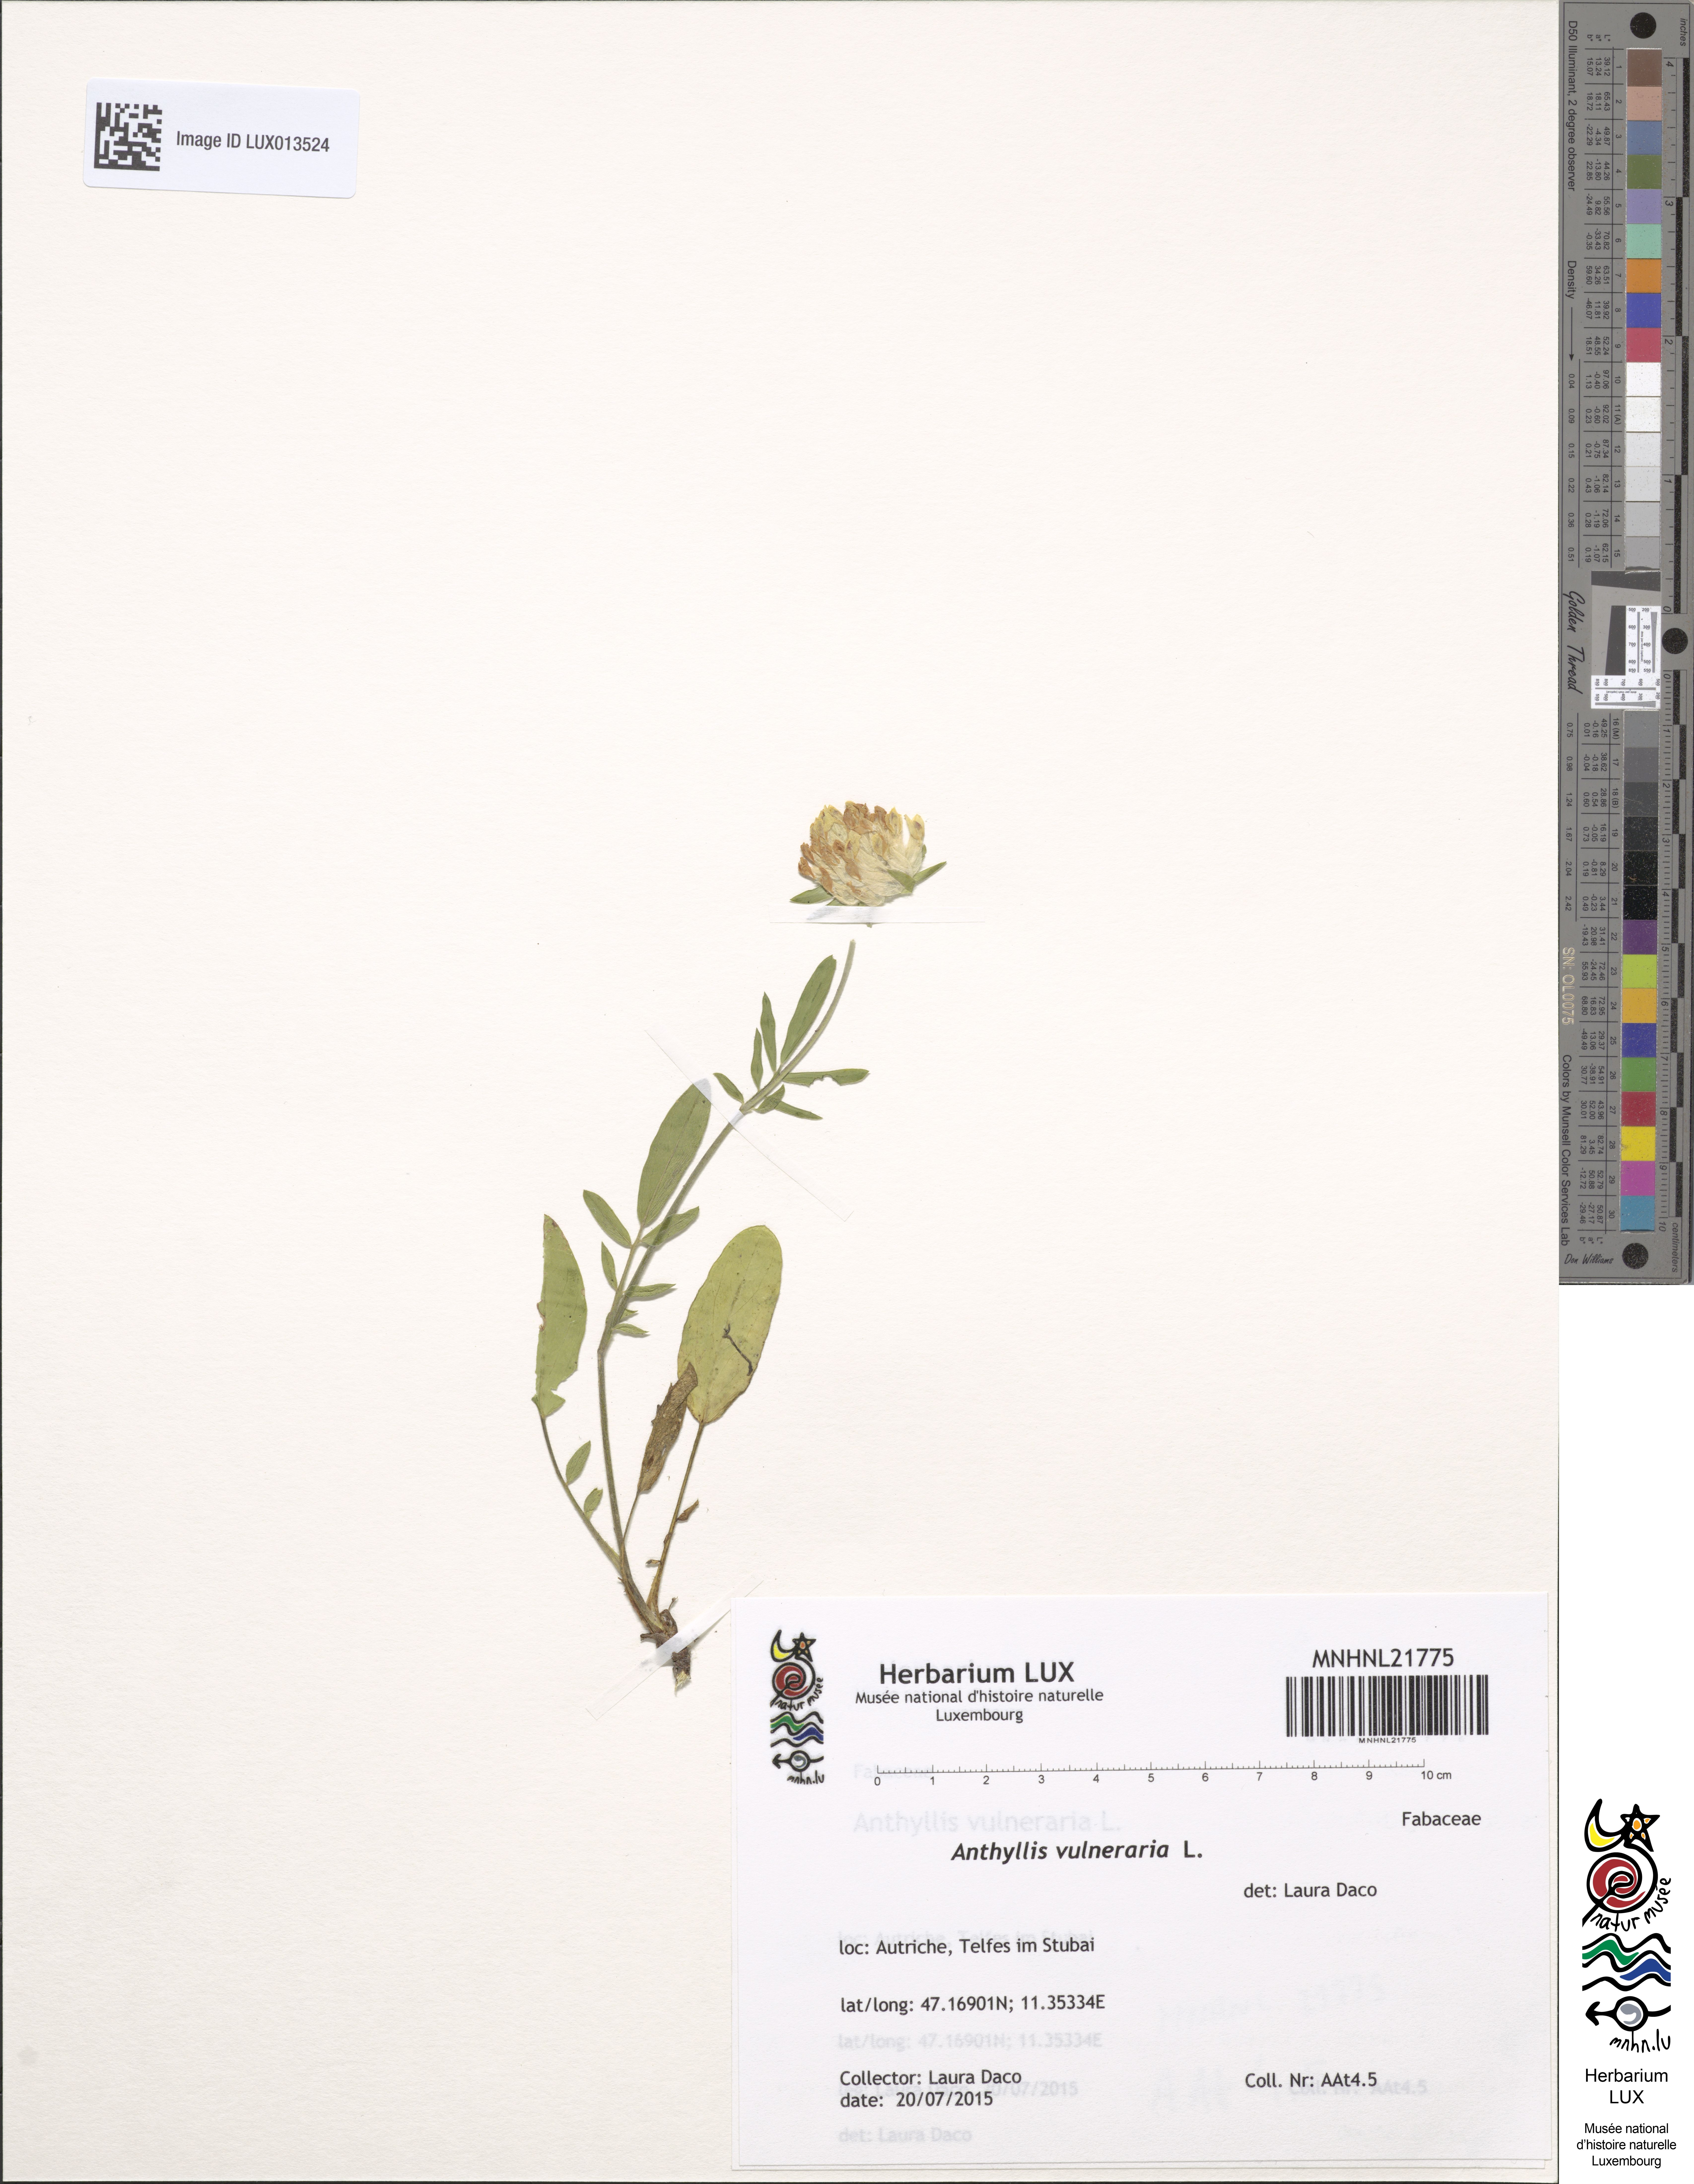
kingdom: Plantae
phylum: Tracheophyta
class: Magnoliopsida
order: Fabales
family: Fabaceae
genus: Anthyllis
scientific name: Anthyllis vulneraria
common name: Kidney vetch
